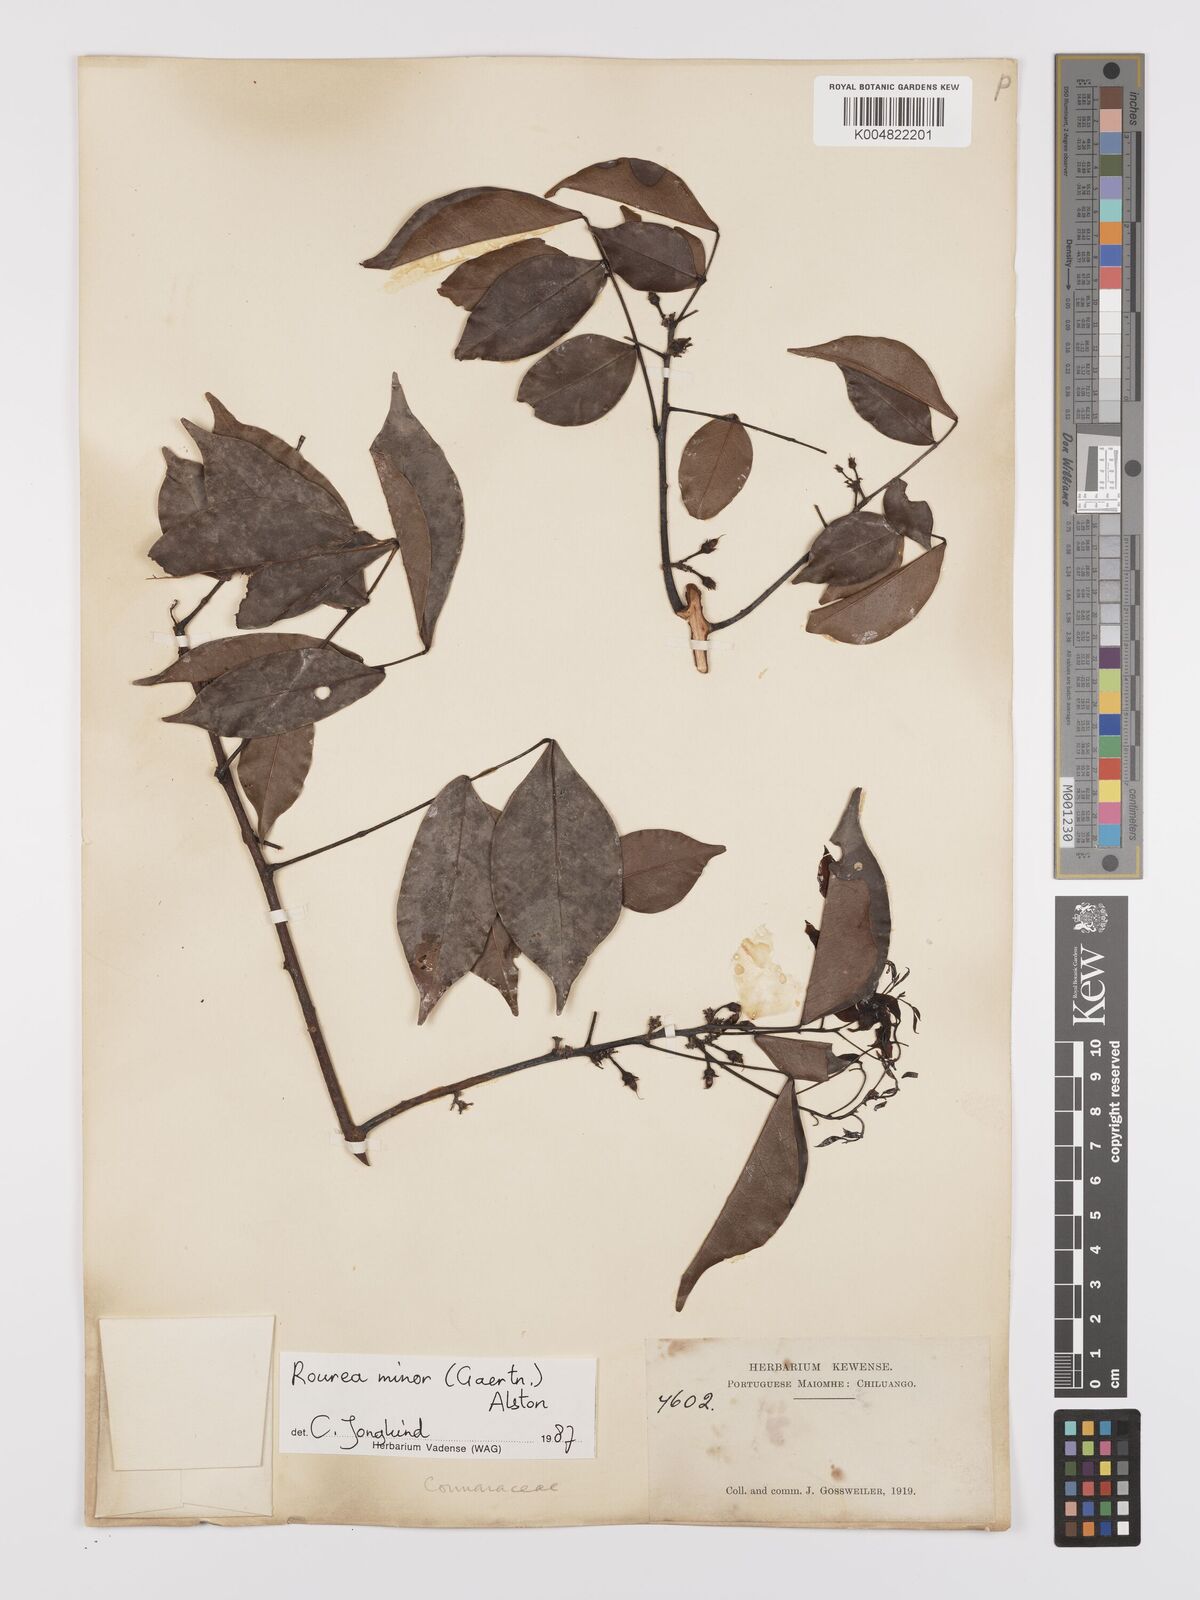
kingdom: Plantae
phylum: Tracheophyta
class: Magnoliopsida
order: Oxalidales
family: Connaraceae
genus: Rourea
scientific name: Rourea minor
